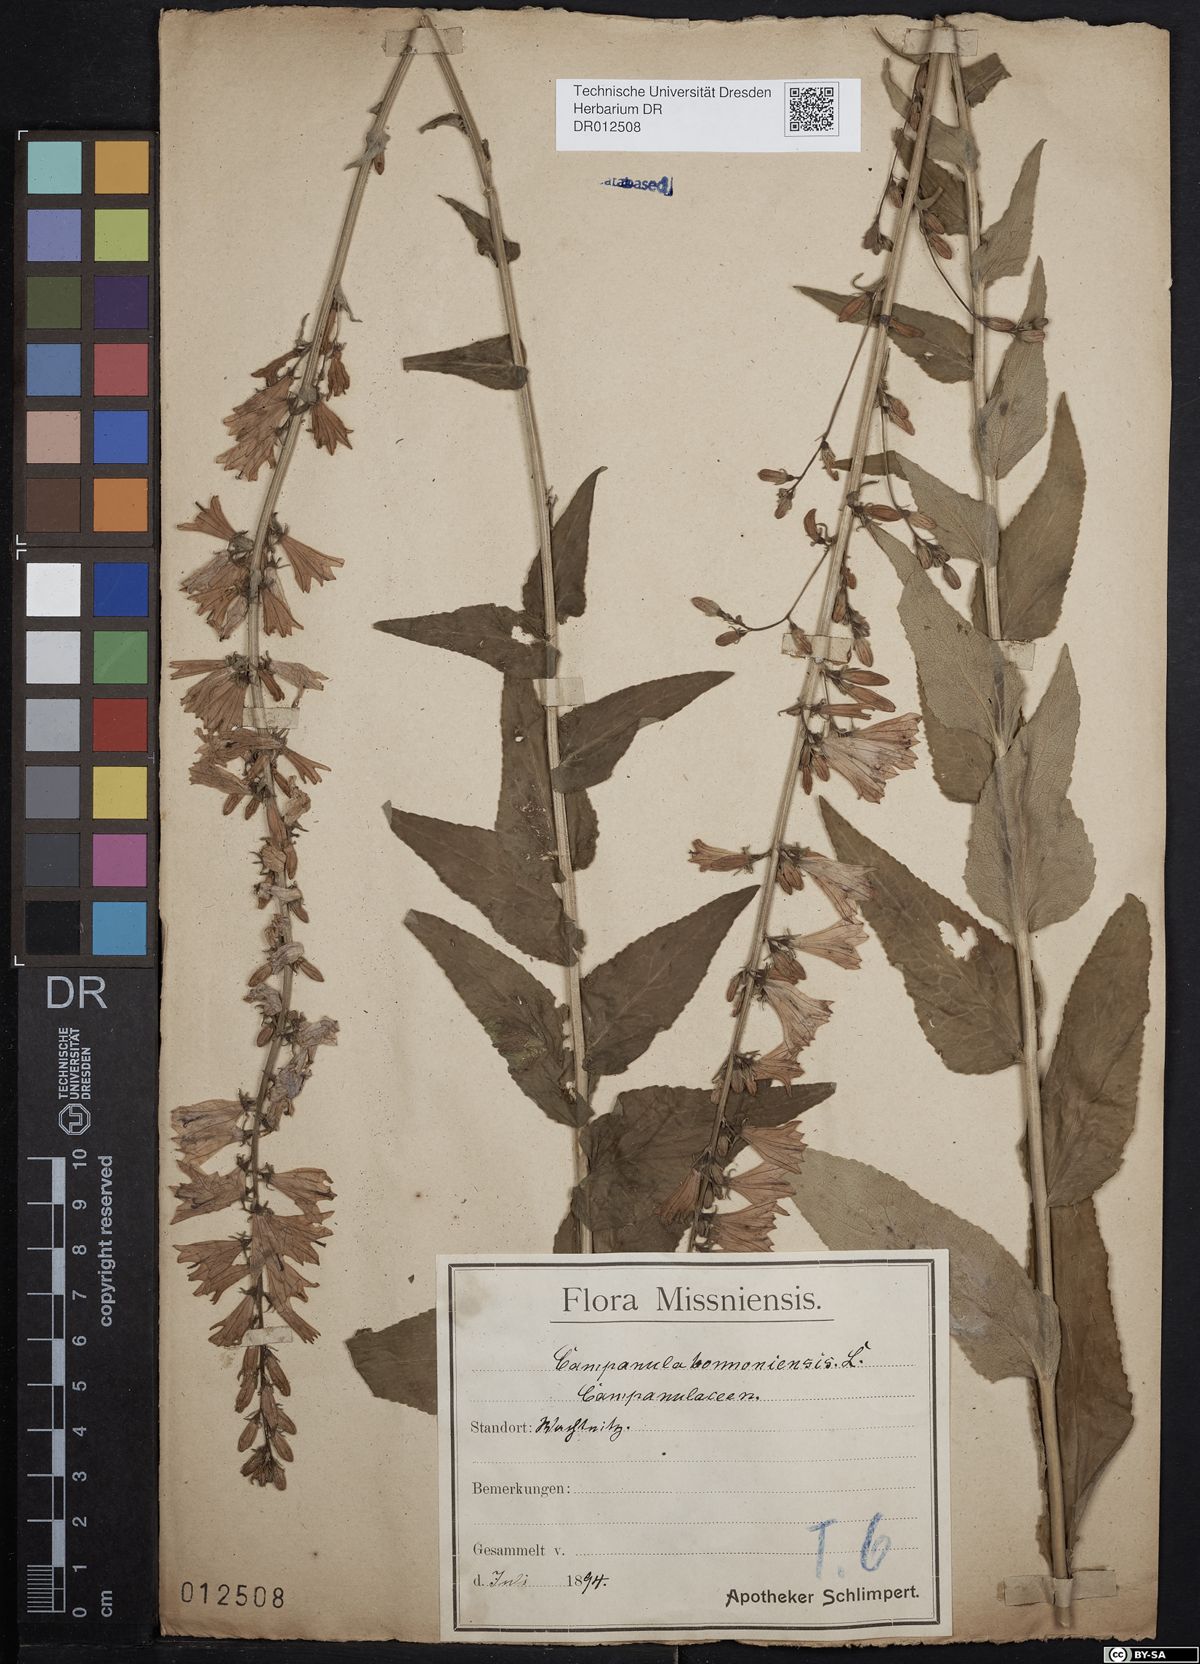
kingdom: Plantae
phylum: Tracheophyta
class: Magnoliopsida
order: Asterales
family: Campanulaceae
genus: Campanula
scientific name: Campanula bononiensis
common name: Pale bellflower
